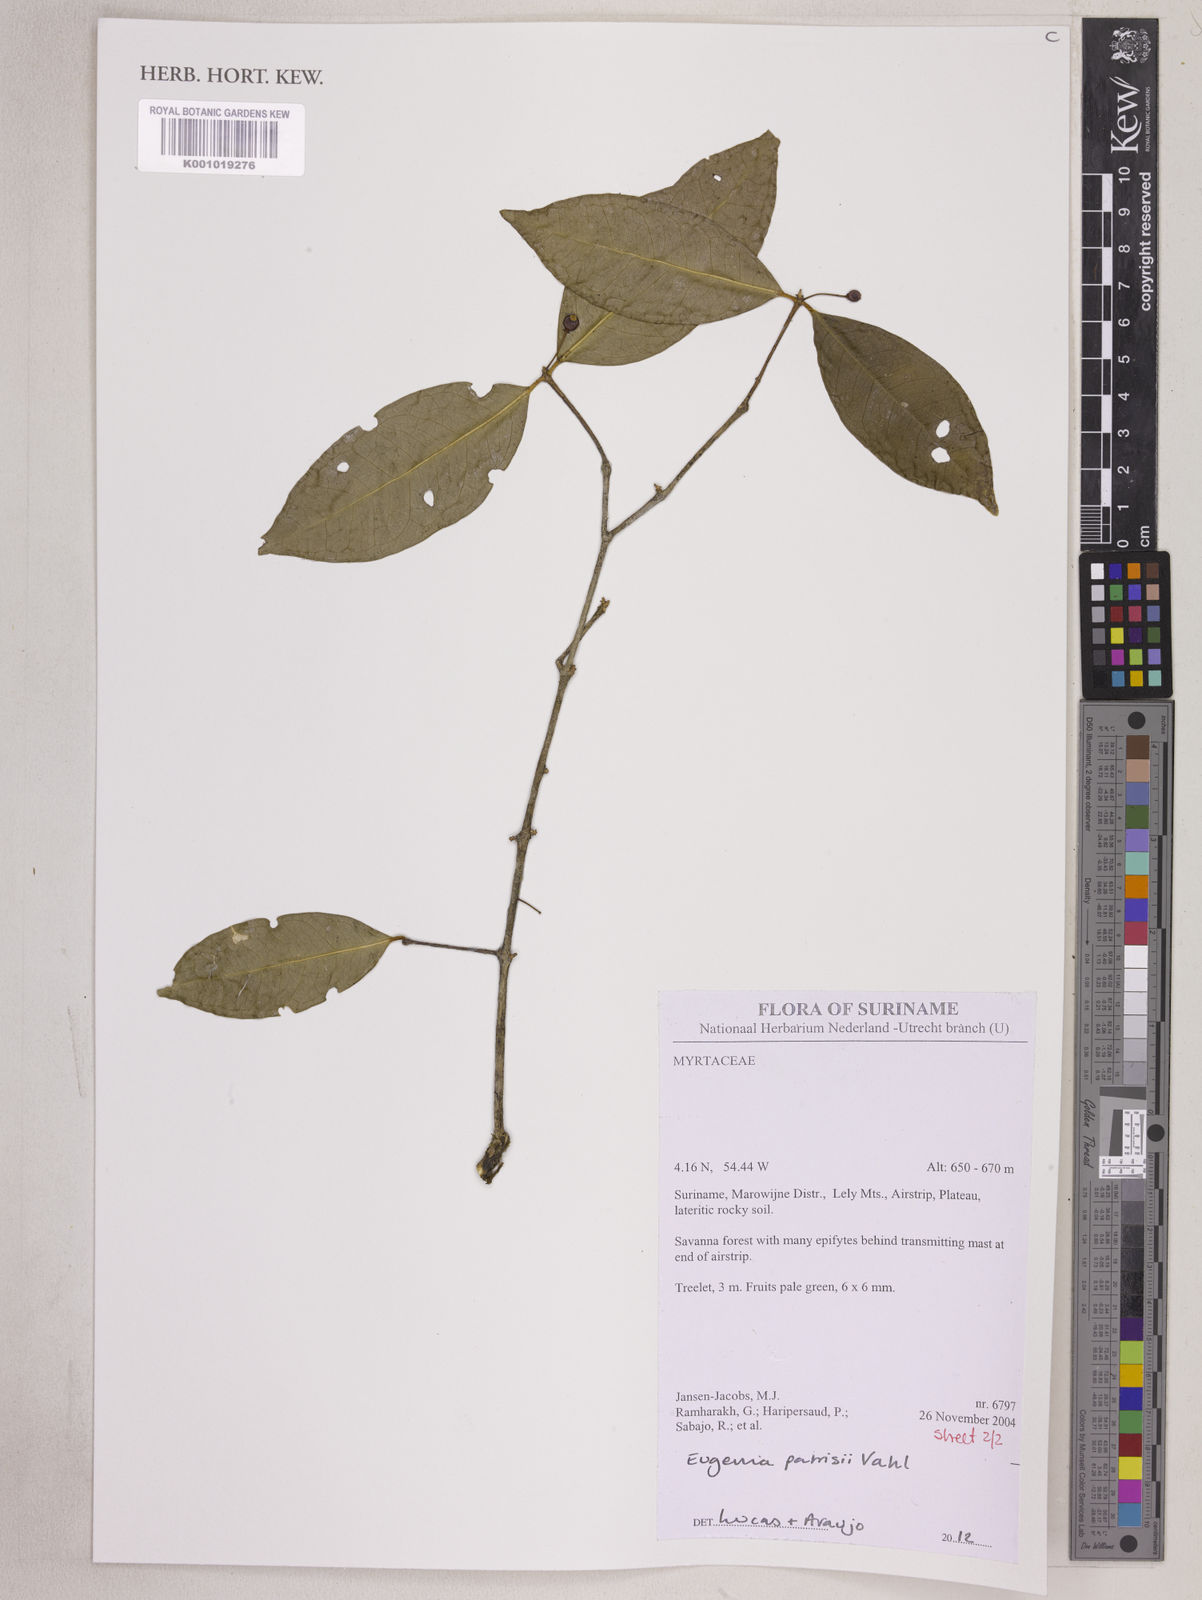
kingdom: Plantae
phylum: Tracheophyta
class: Magnoliopsida
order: Myrtales
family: Myrtaceae
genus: Eugenia
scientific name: Eugenia patrisii
